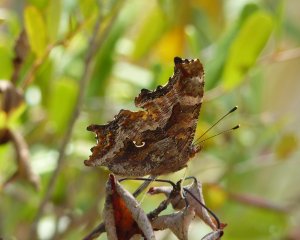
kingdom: Animalia
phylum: Arthropoda
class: Insecta
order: Lepidoptera
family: Nymphalidae
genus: Polygonia
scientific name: Polygonia comma
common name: Eastern Comma
